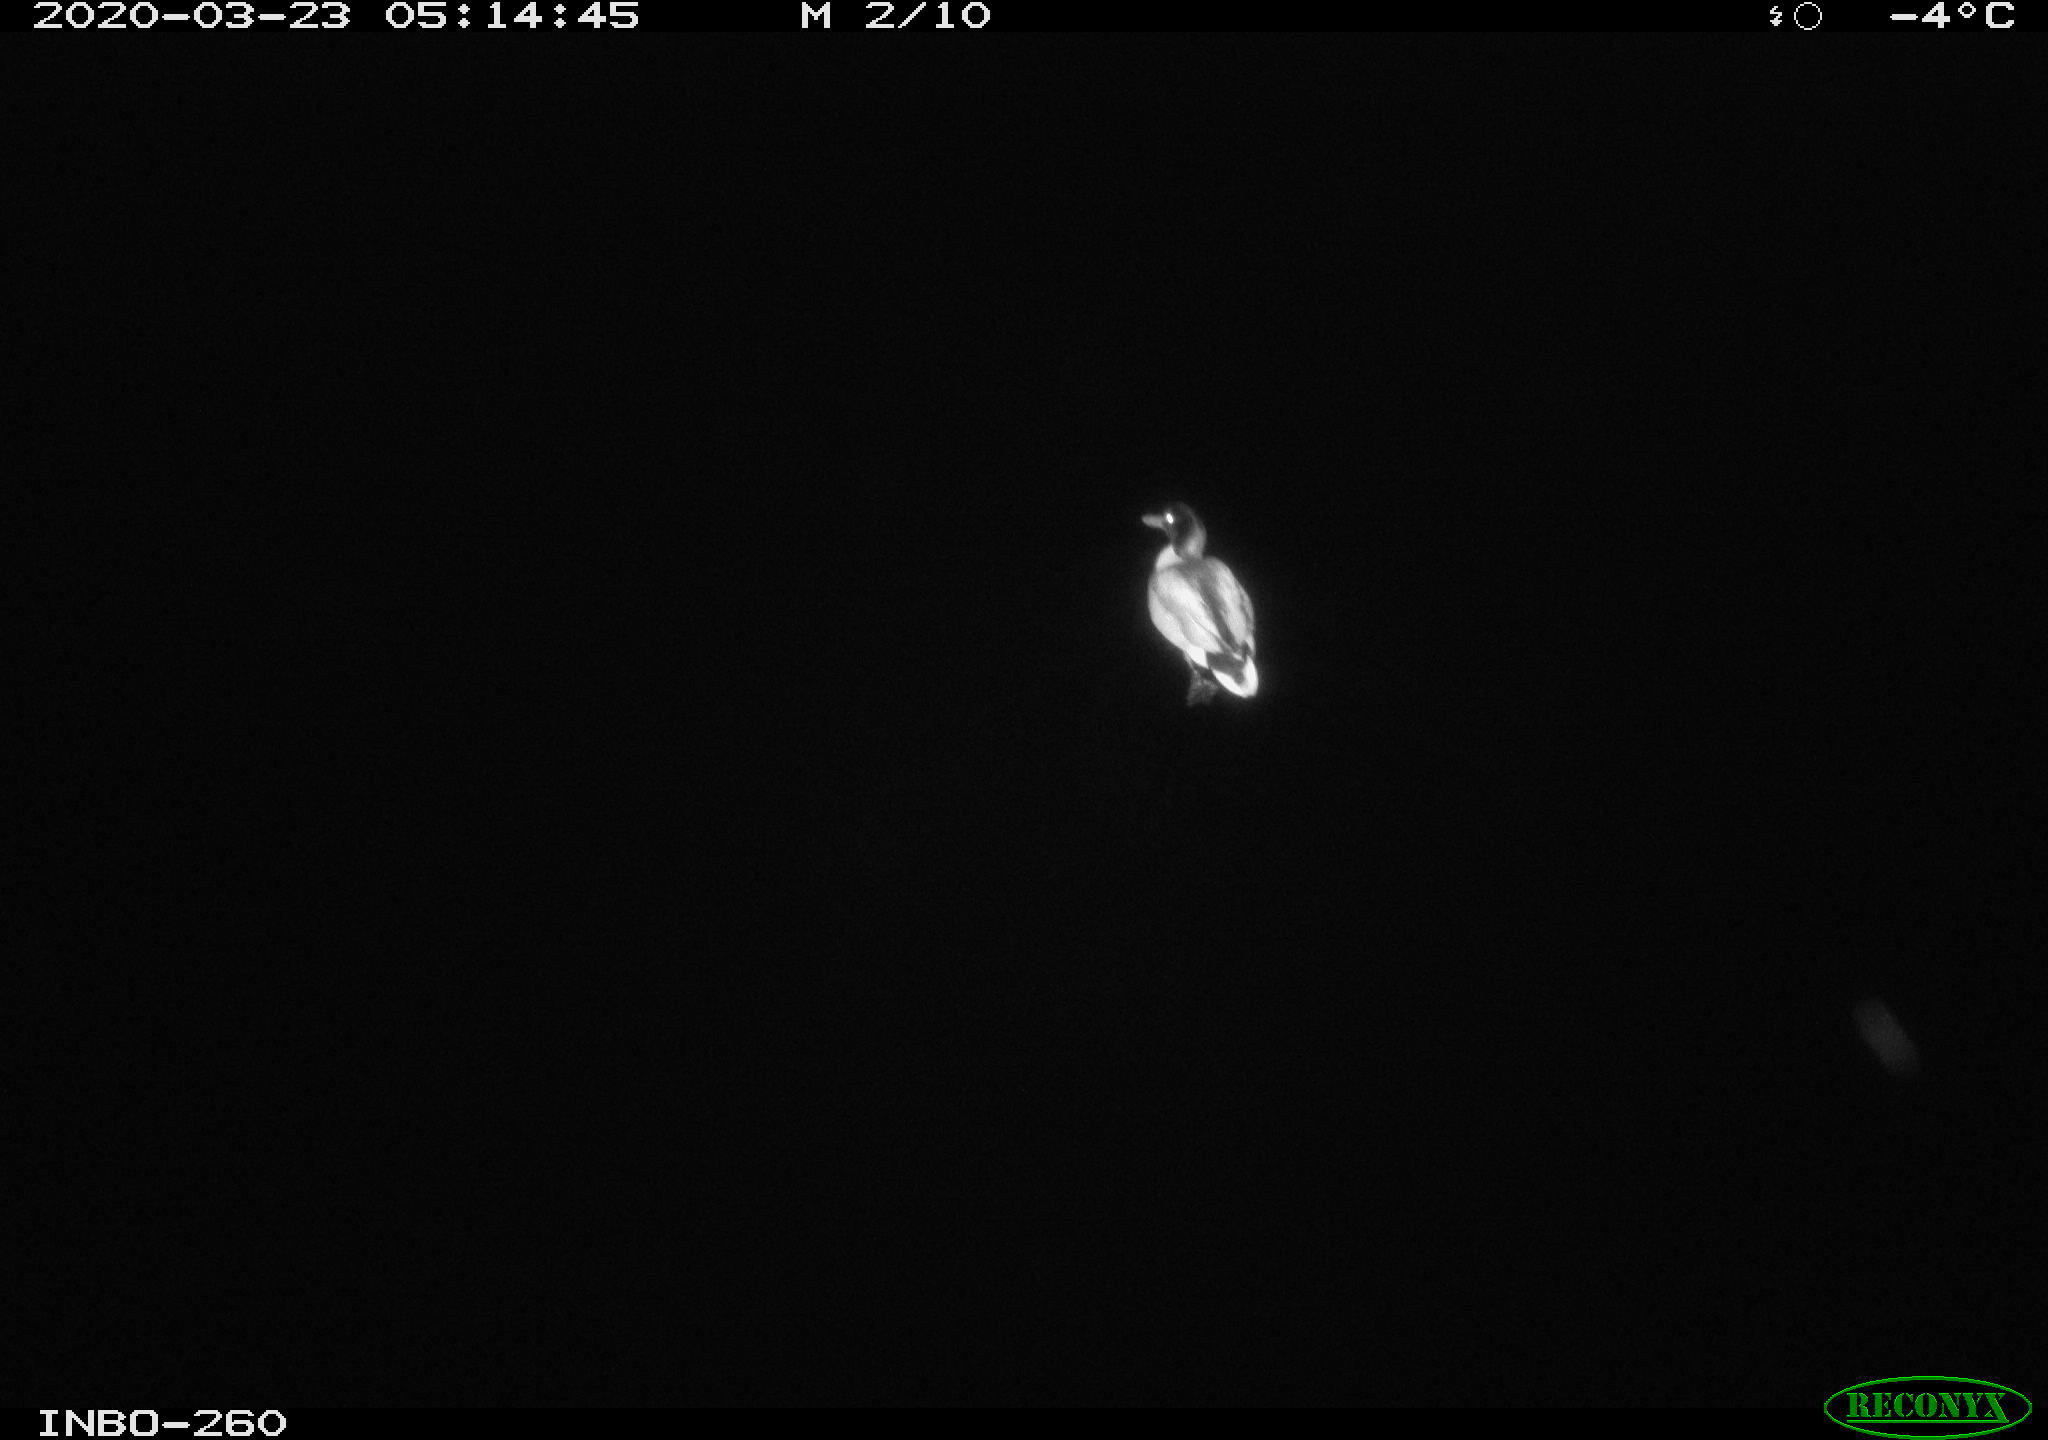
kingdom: Animalia
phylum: Chordata
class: Aves
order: Anseriformes
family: Anatidae
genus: Anas
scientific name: Anas platyrhynchos
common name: Mallard
